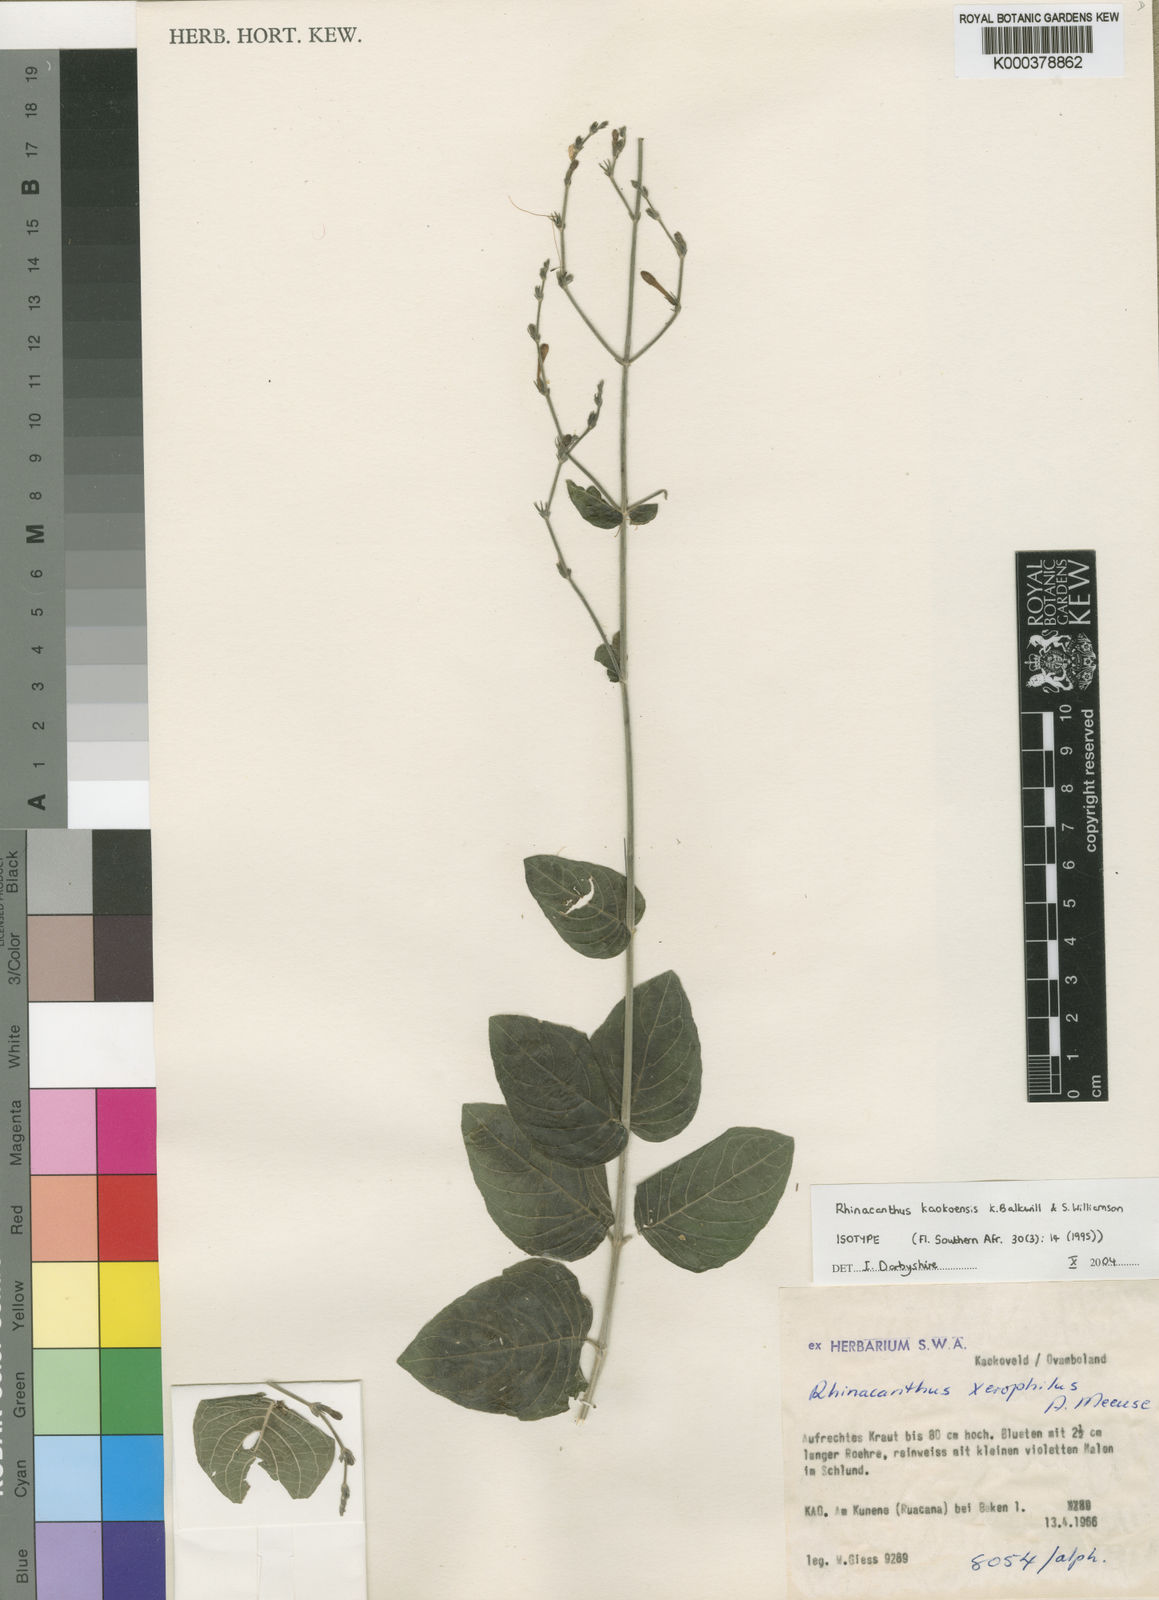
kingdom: Plantae
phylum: Tracheophyta
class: Magnoliopsida
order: Lamiales
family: Acanthaceae
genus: Rhinacanthus
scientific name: Rhinacanthus kaokoensis
